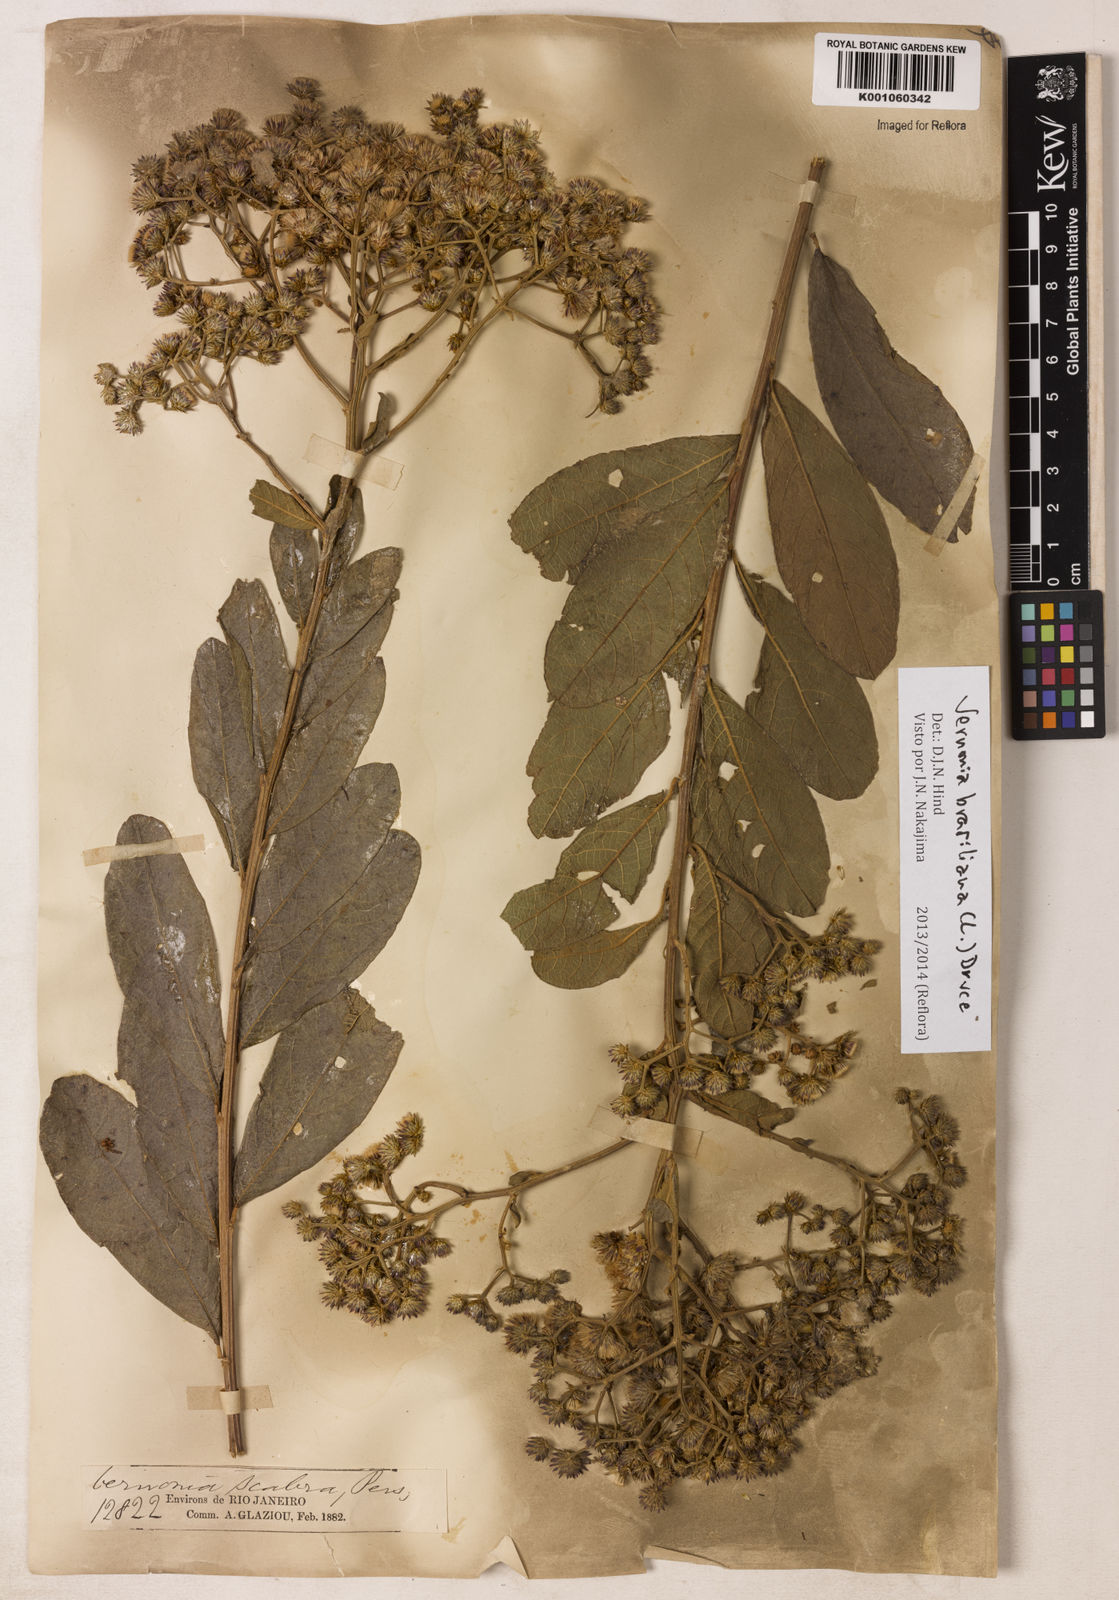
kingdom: Plantae
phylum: Tracheophyta
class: Magnoliopsida
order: Asterales
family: Asteraceae
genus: Vernonanthura
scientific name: Vernonanthura brasiliana
